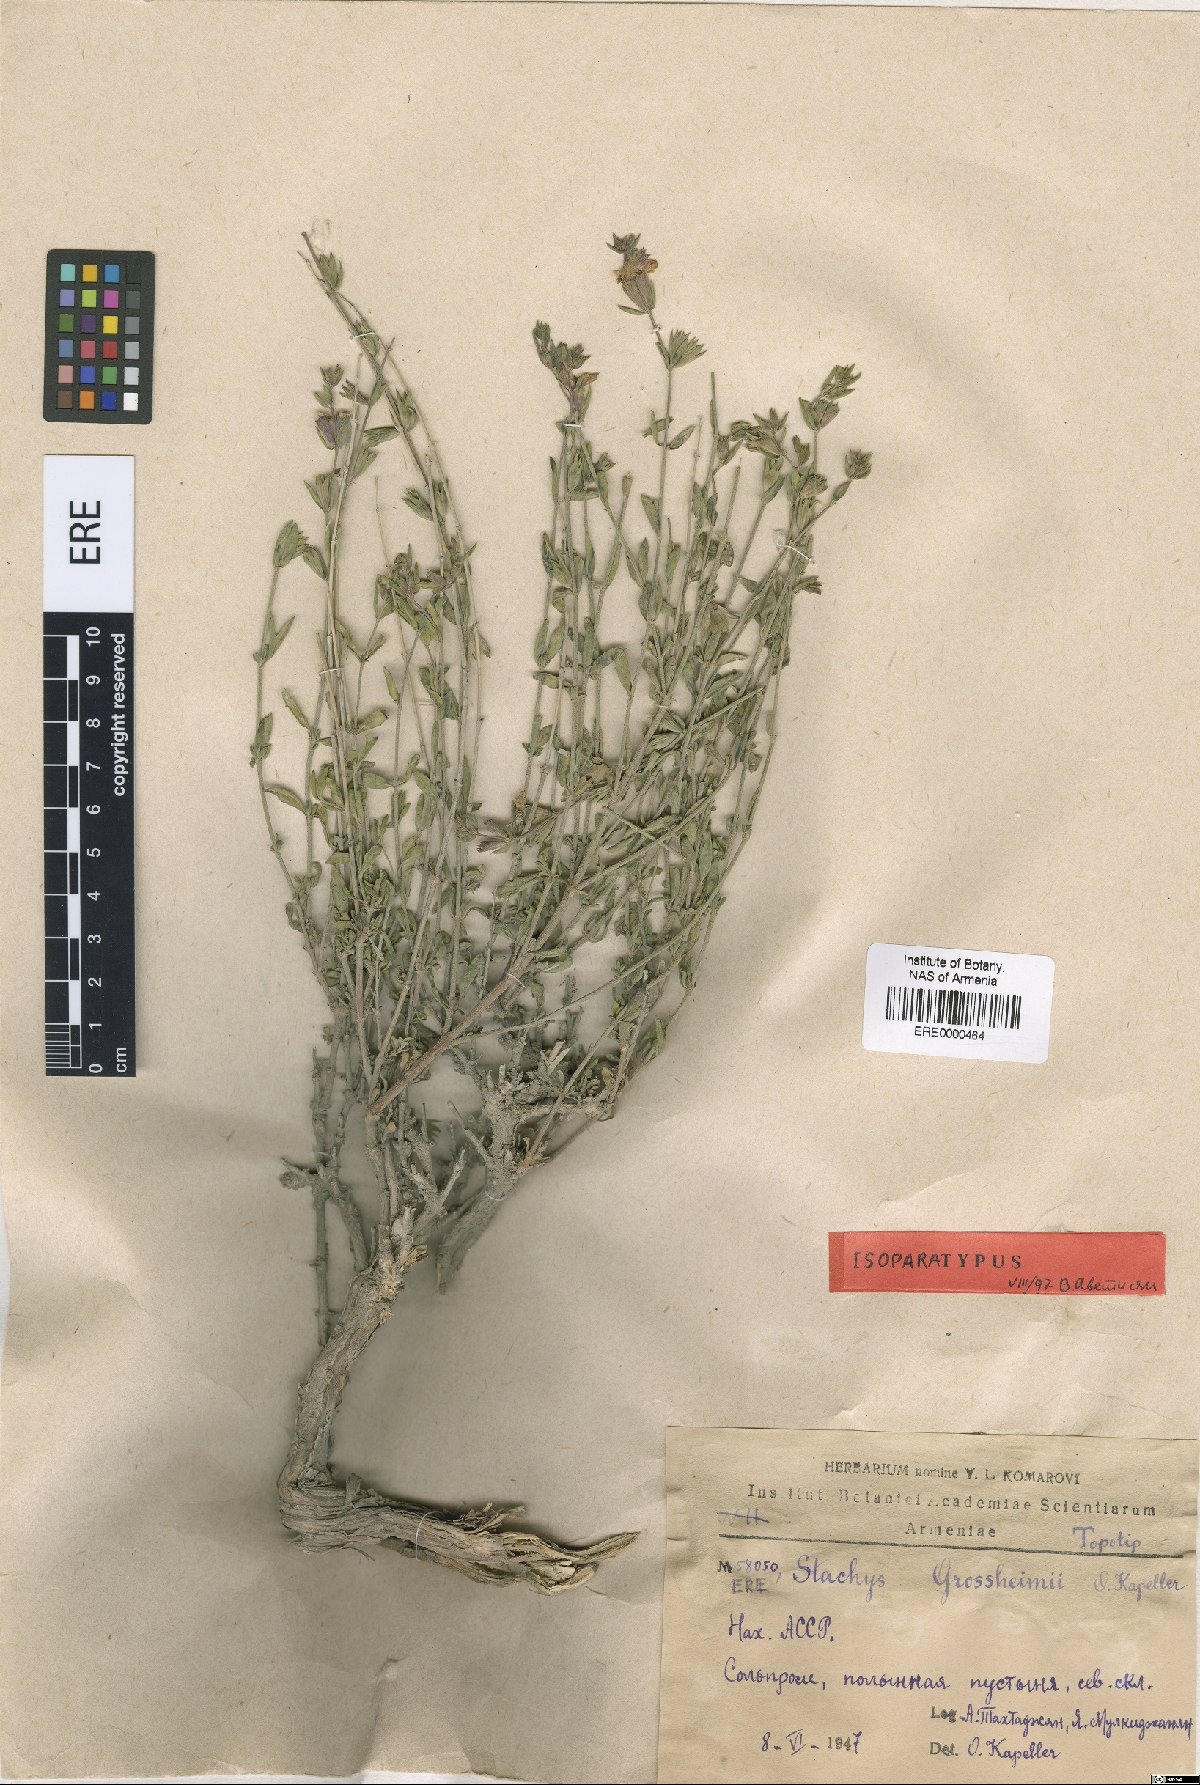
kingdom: Plantae
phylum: Tracheophyta
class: Magnoliopsida
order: Lamiales
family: Lamiaceae
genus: Stachys
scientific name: Stachys fruticulosa
